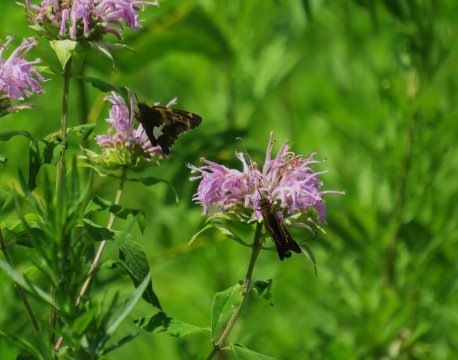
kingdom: Animalia
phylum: Arthropoda
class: Insecta
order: Lepidoptera
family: Hesperiidae
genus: Epargyreus
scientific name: Epargyreus clarus
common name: Silver-spotted Skipper
